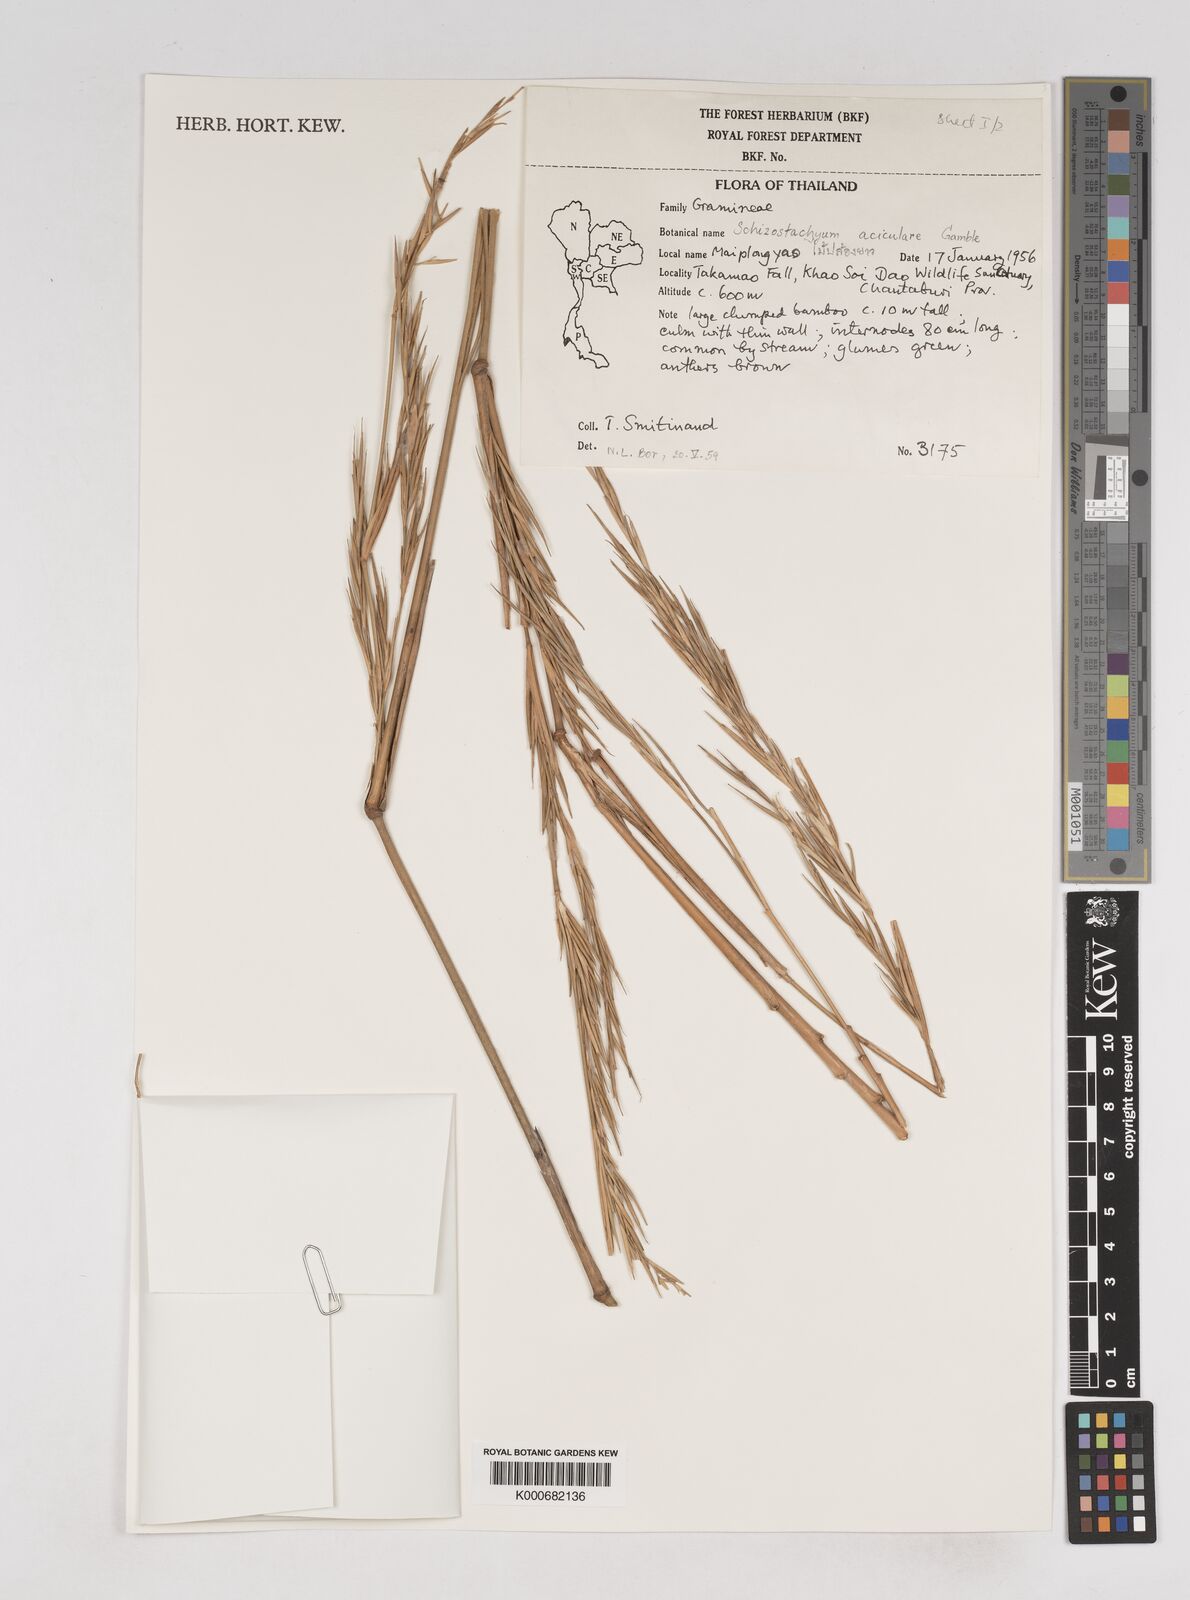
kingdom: Plantae
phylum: Tracheophyta
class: Liliopsida
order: Poales
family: Poaceae
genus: Schizostachyum
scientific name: Schizostachyum
